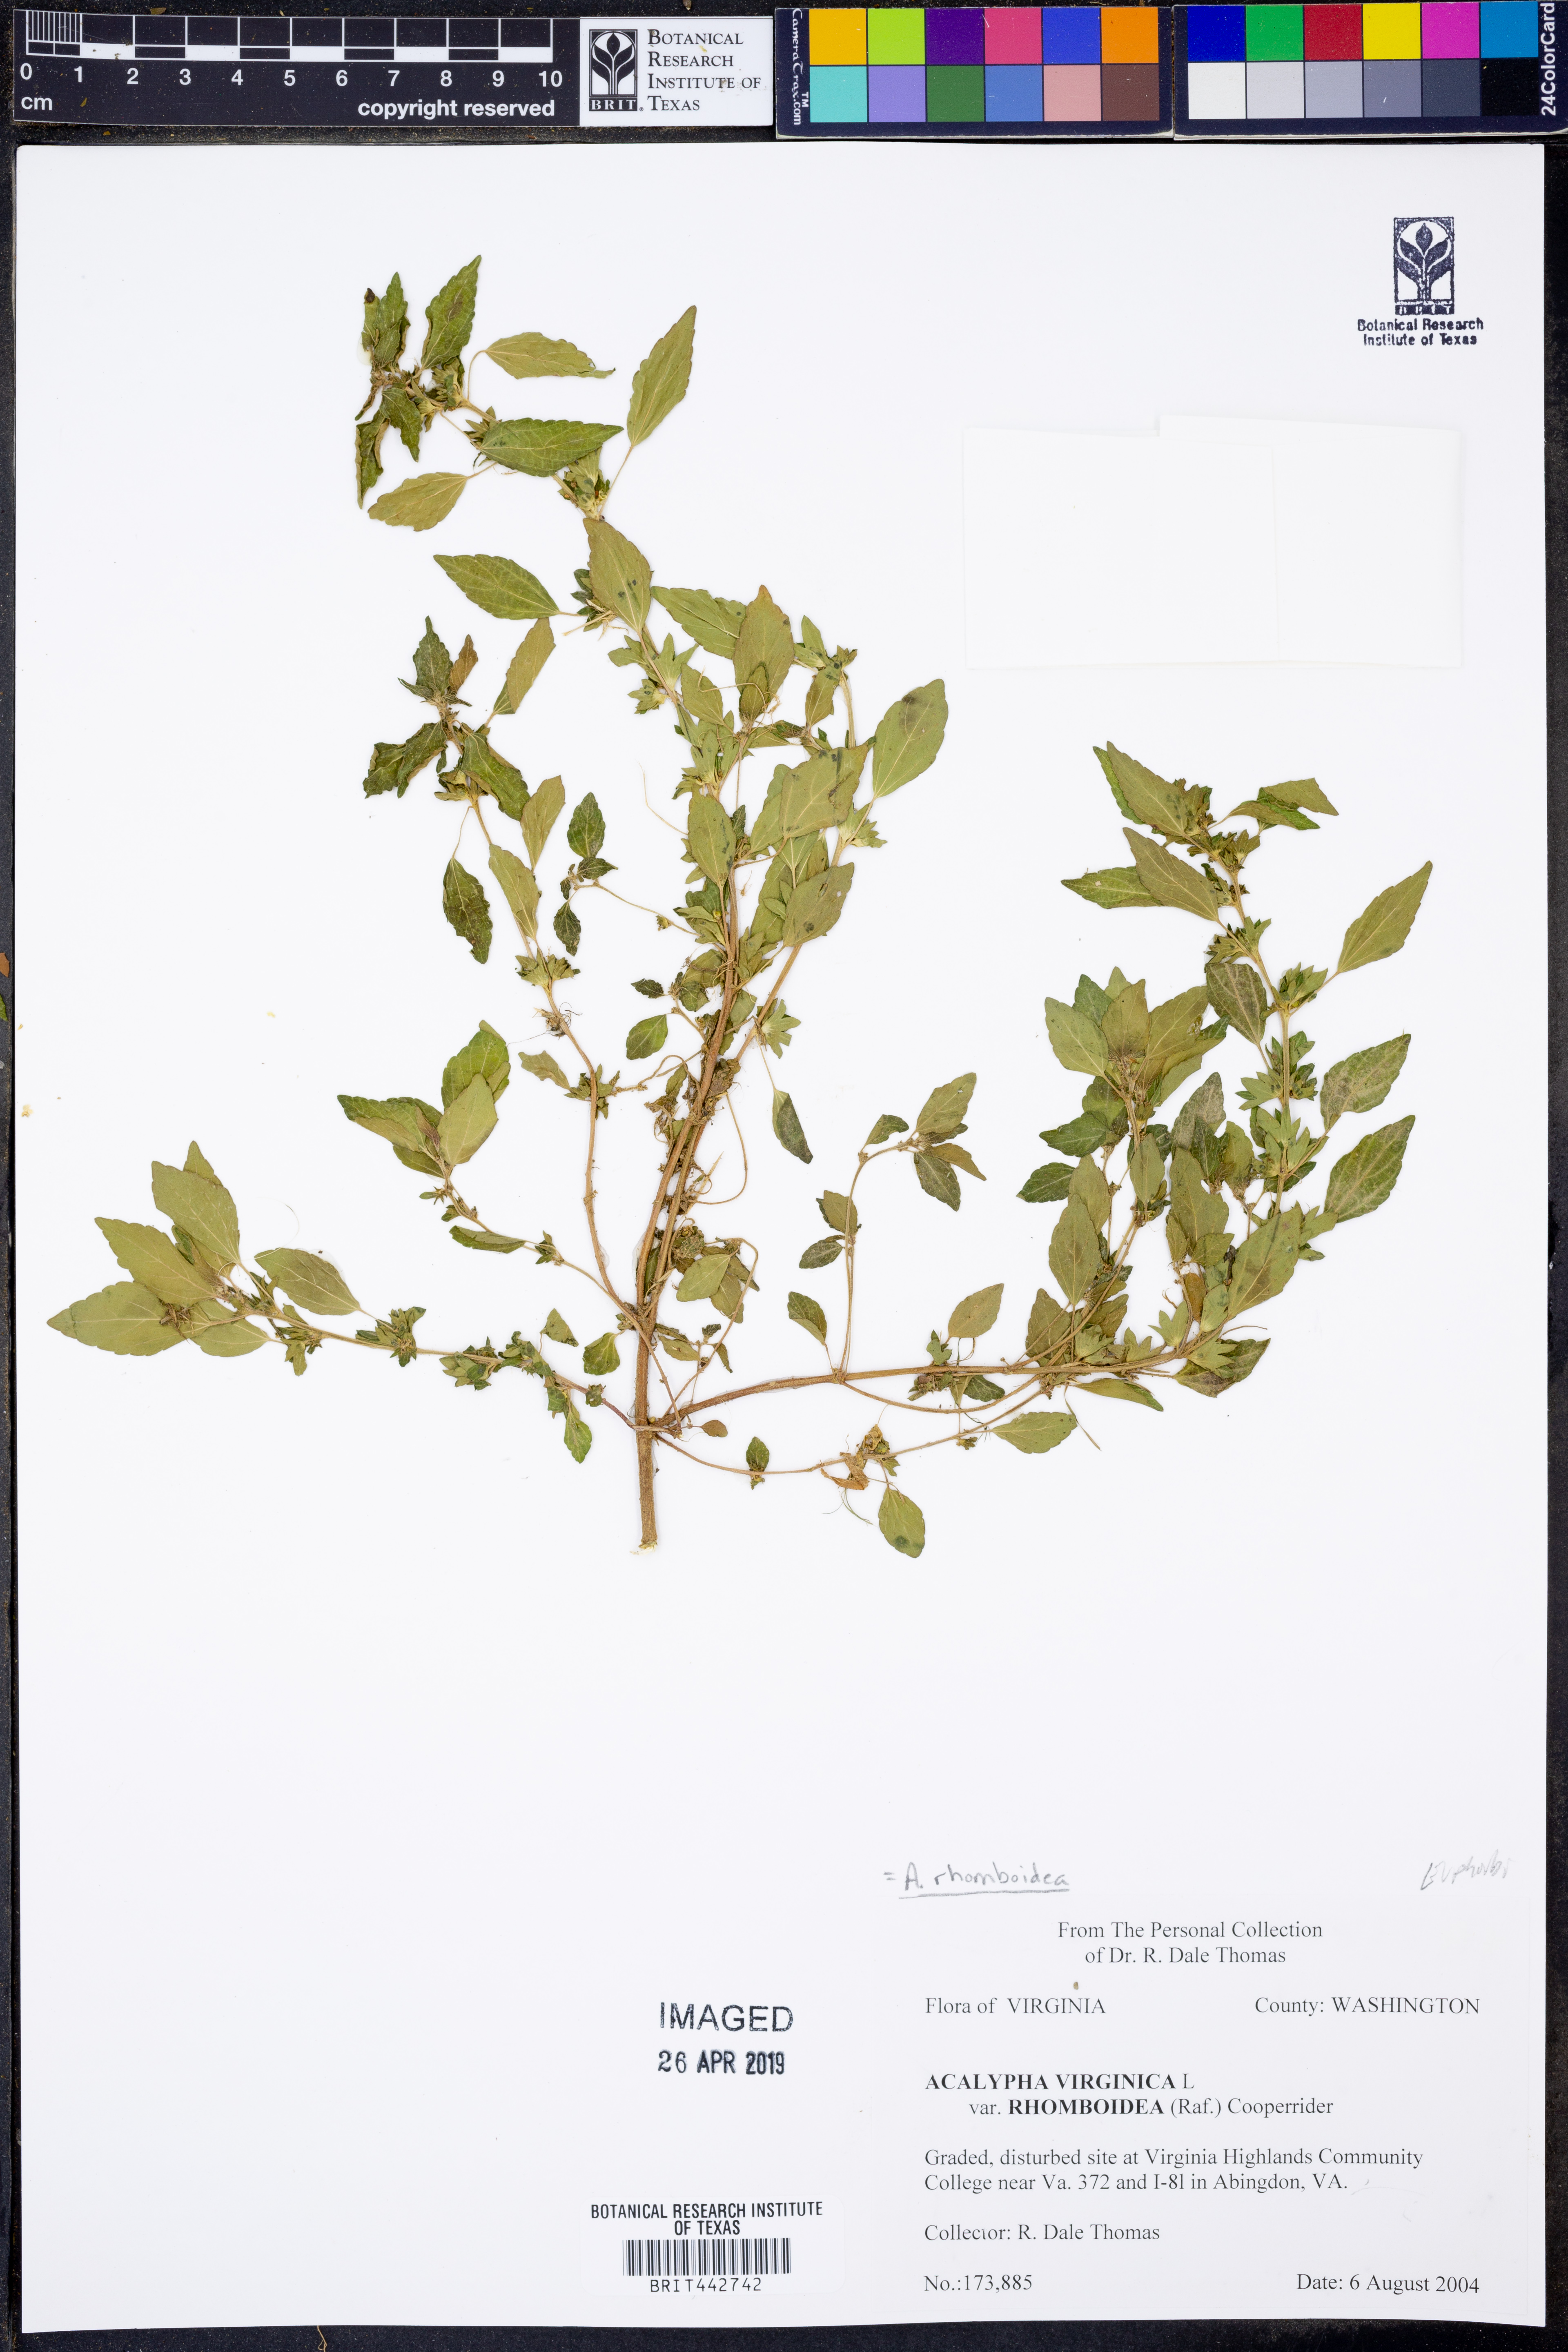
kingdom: Plantae
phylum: Tracheophyta
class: Magnoliopsida
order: Malpighiales
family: Euphorbiaceae
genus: Acalypha
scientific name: Acalypha rhomboidea
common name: Rhombic copperleaf
